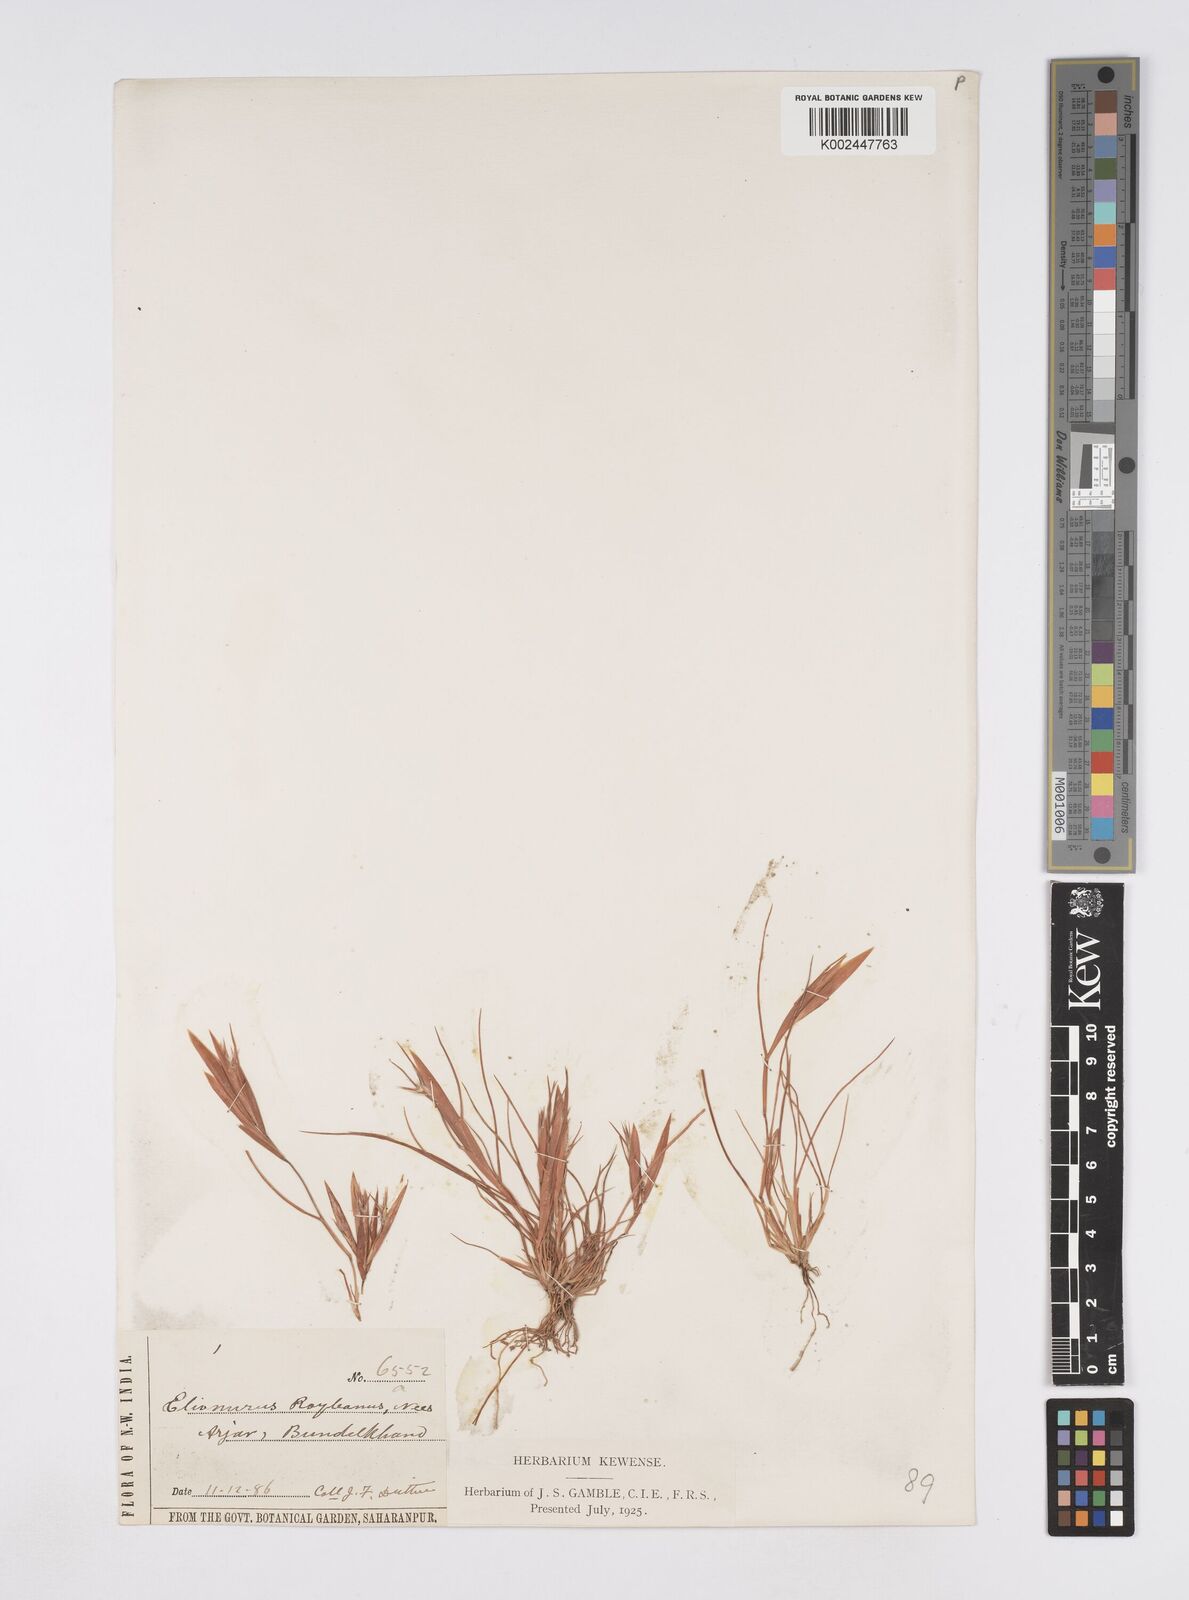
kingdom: Plantae
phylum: Tracheophyta
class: Liliopsida
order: Poales
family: Poaceae
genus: Elionurus
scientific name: Elionurus royleanus
